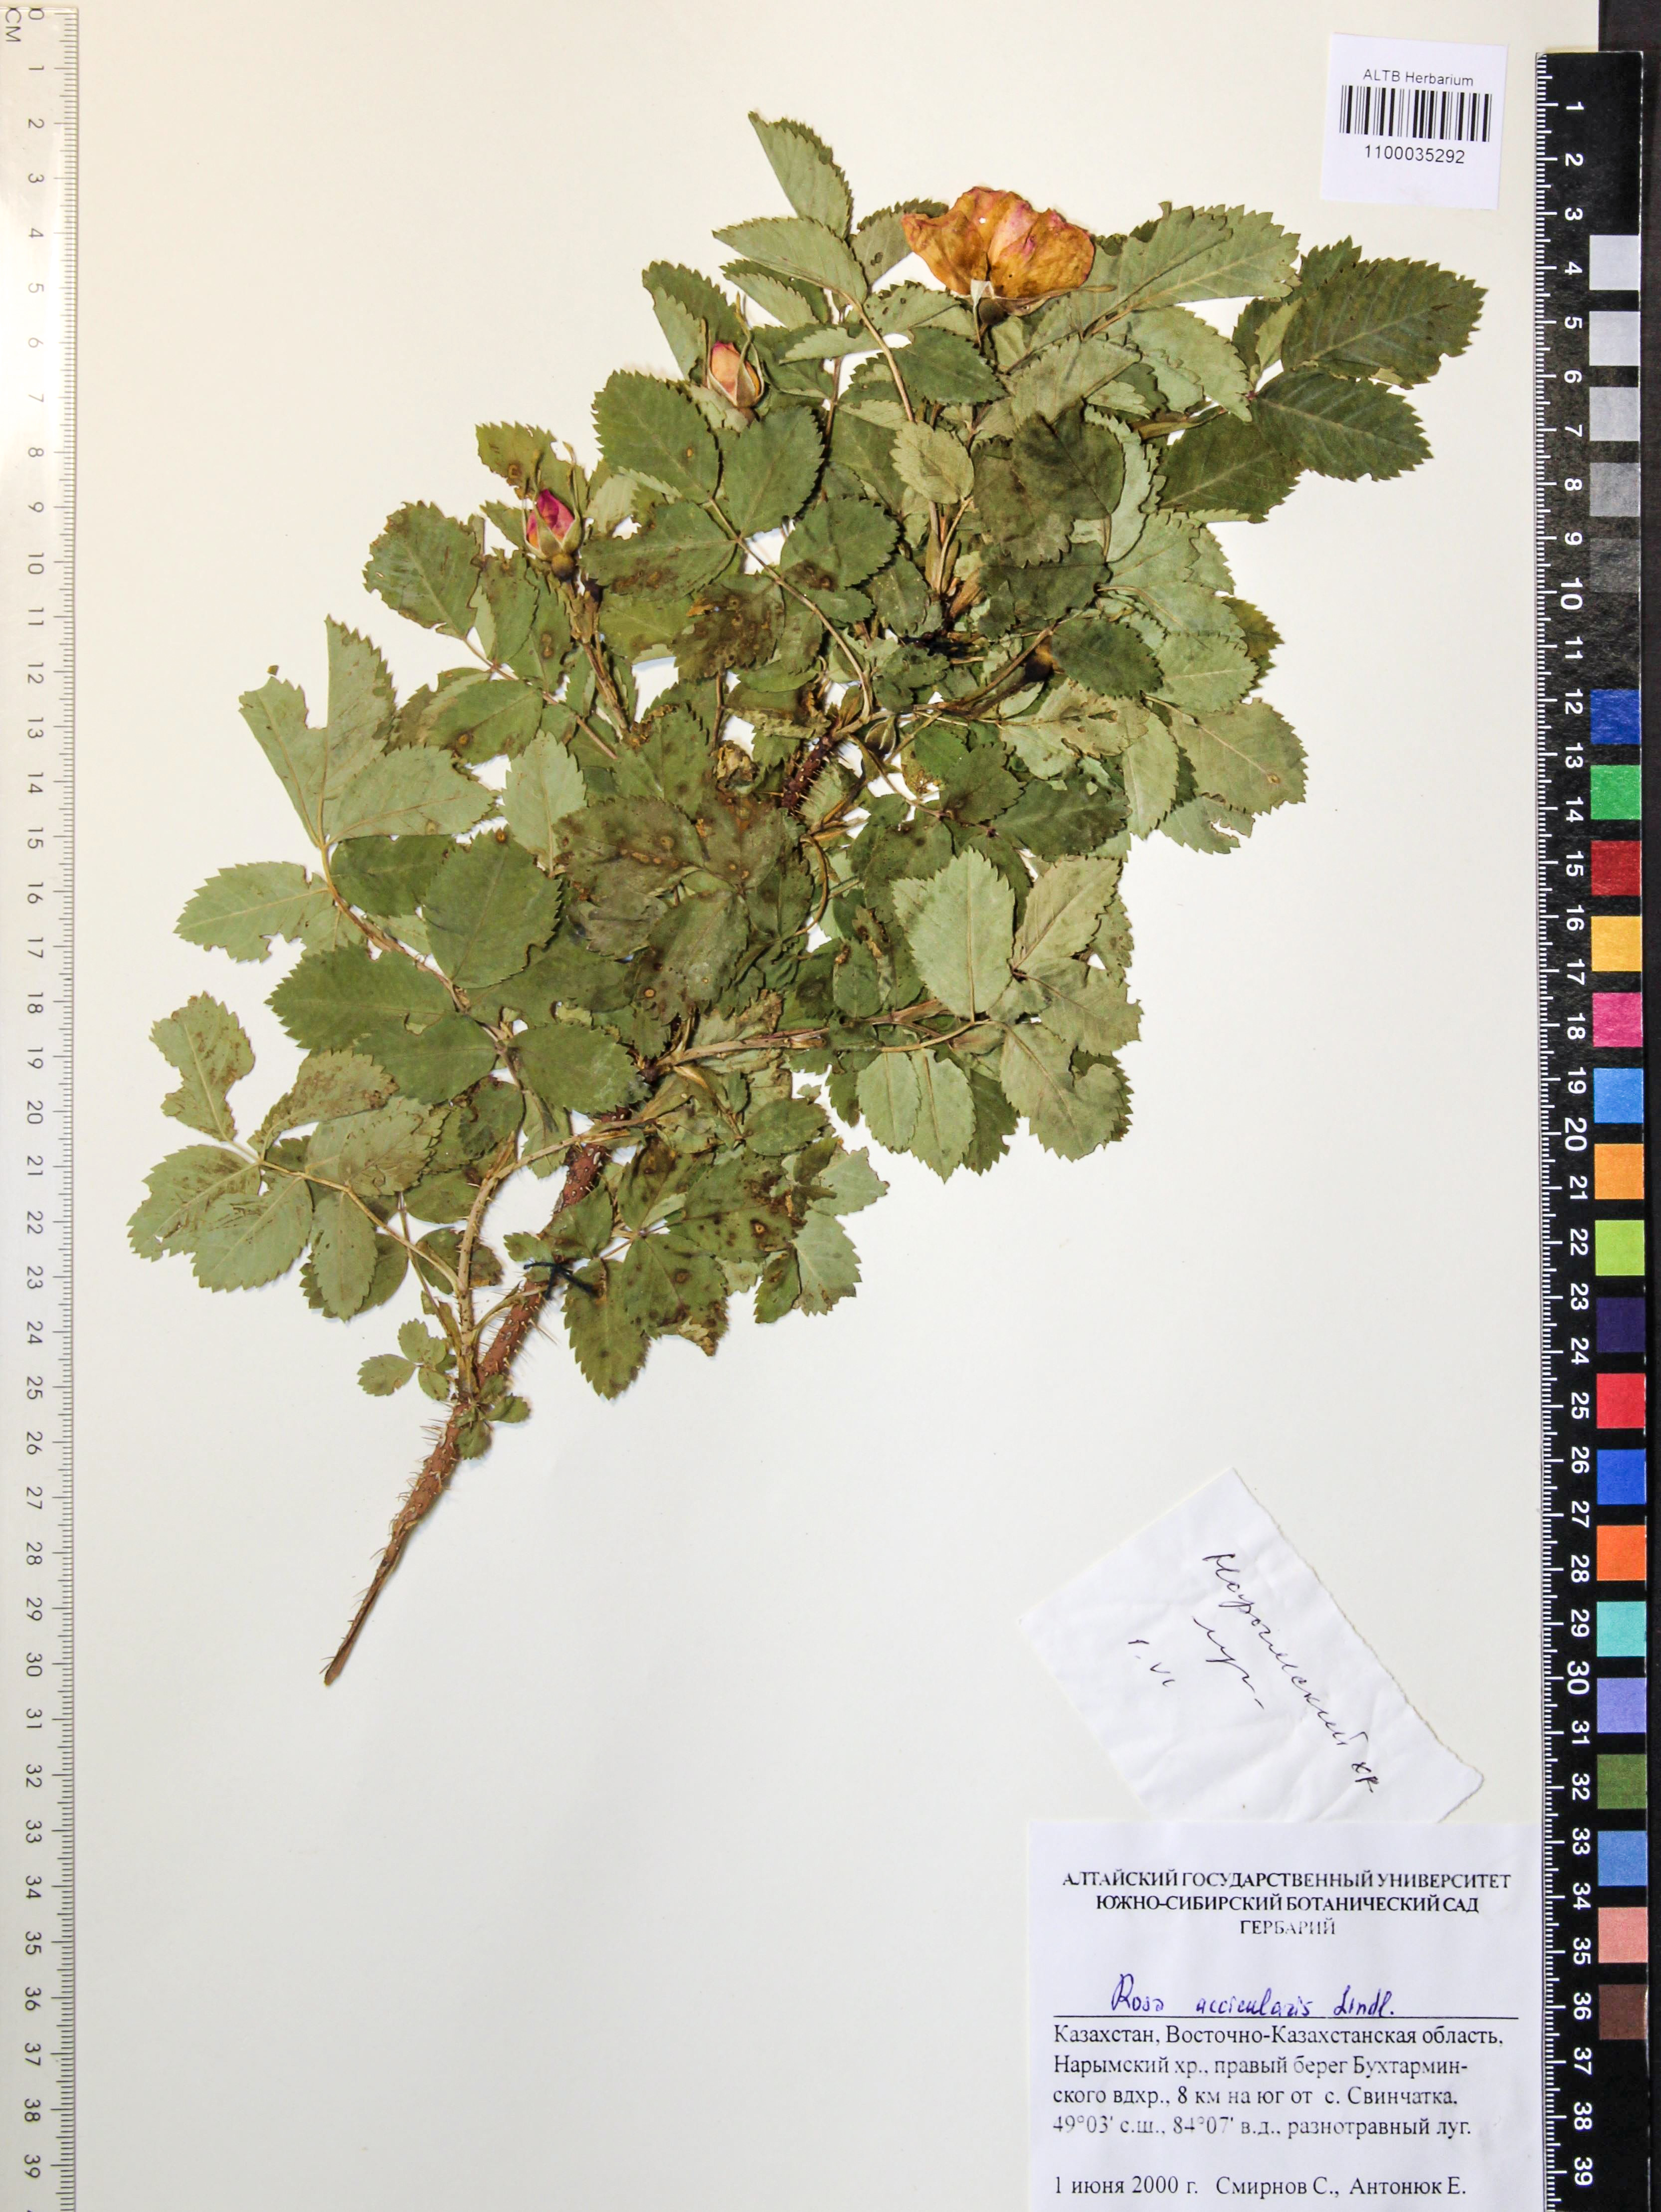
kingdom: Plantae
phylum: Tracheophyta
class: Magnoliopsida
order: Rosales
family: Rosaceae
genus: Rosa
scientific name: Rosa acicularis
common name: Prickly rose
